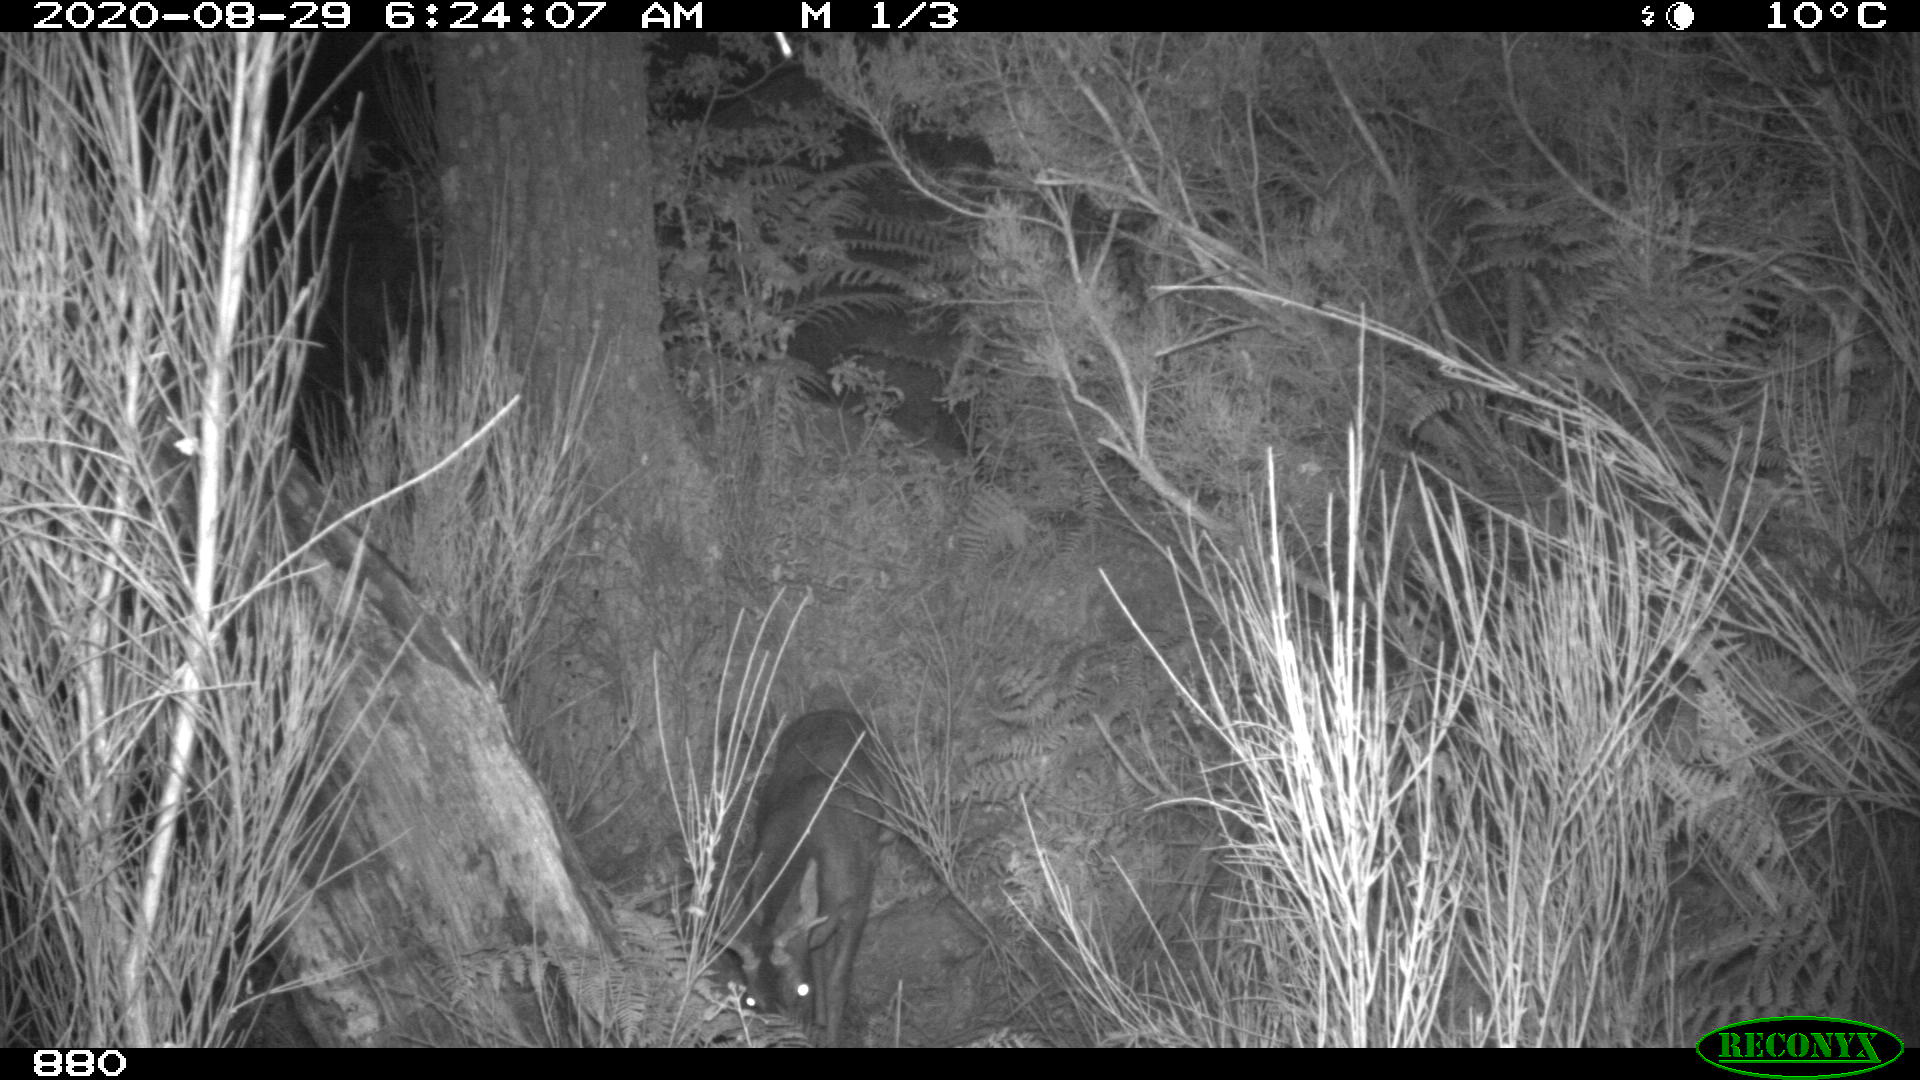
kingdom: Animalia
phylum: Chordata
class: Mammalia
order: Artiodactyla
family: Cervidae
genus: Capreolus
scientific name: Capreolus capreolus
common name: Western roe deer
